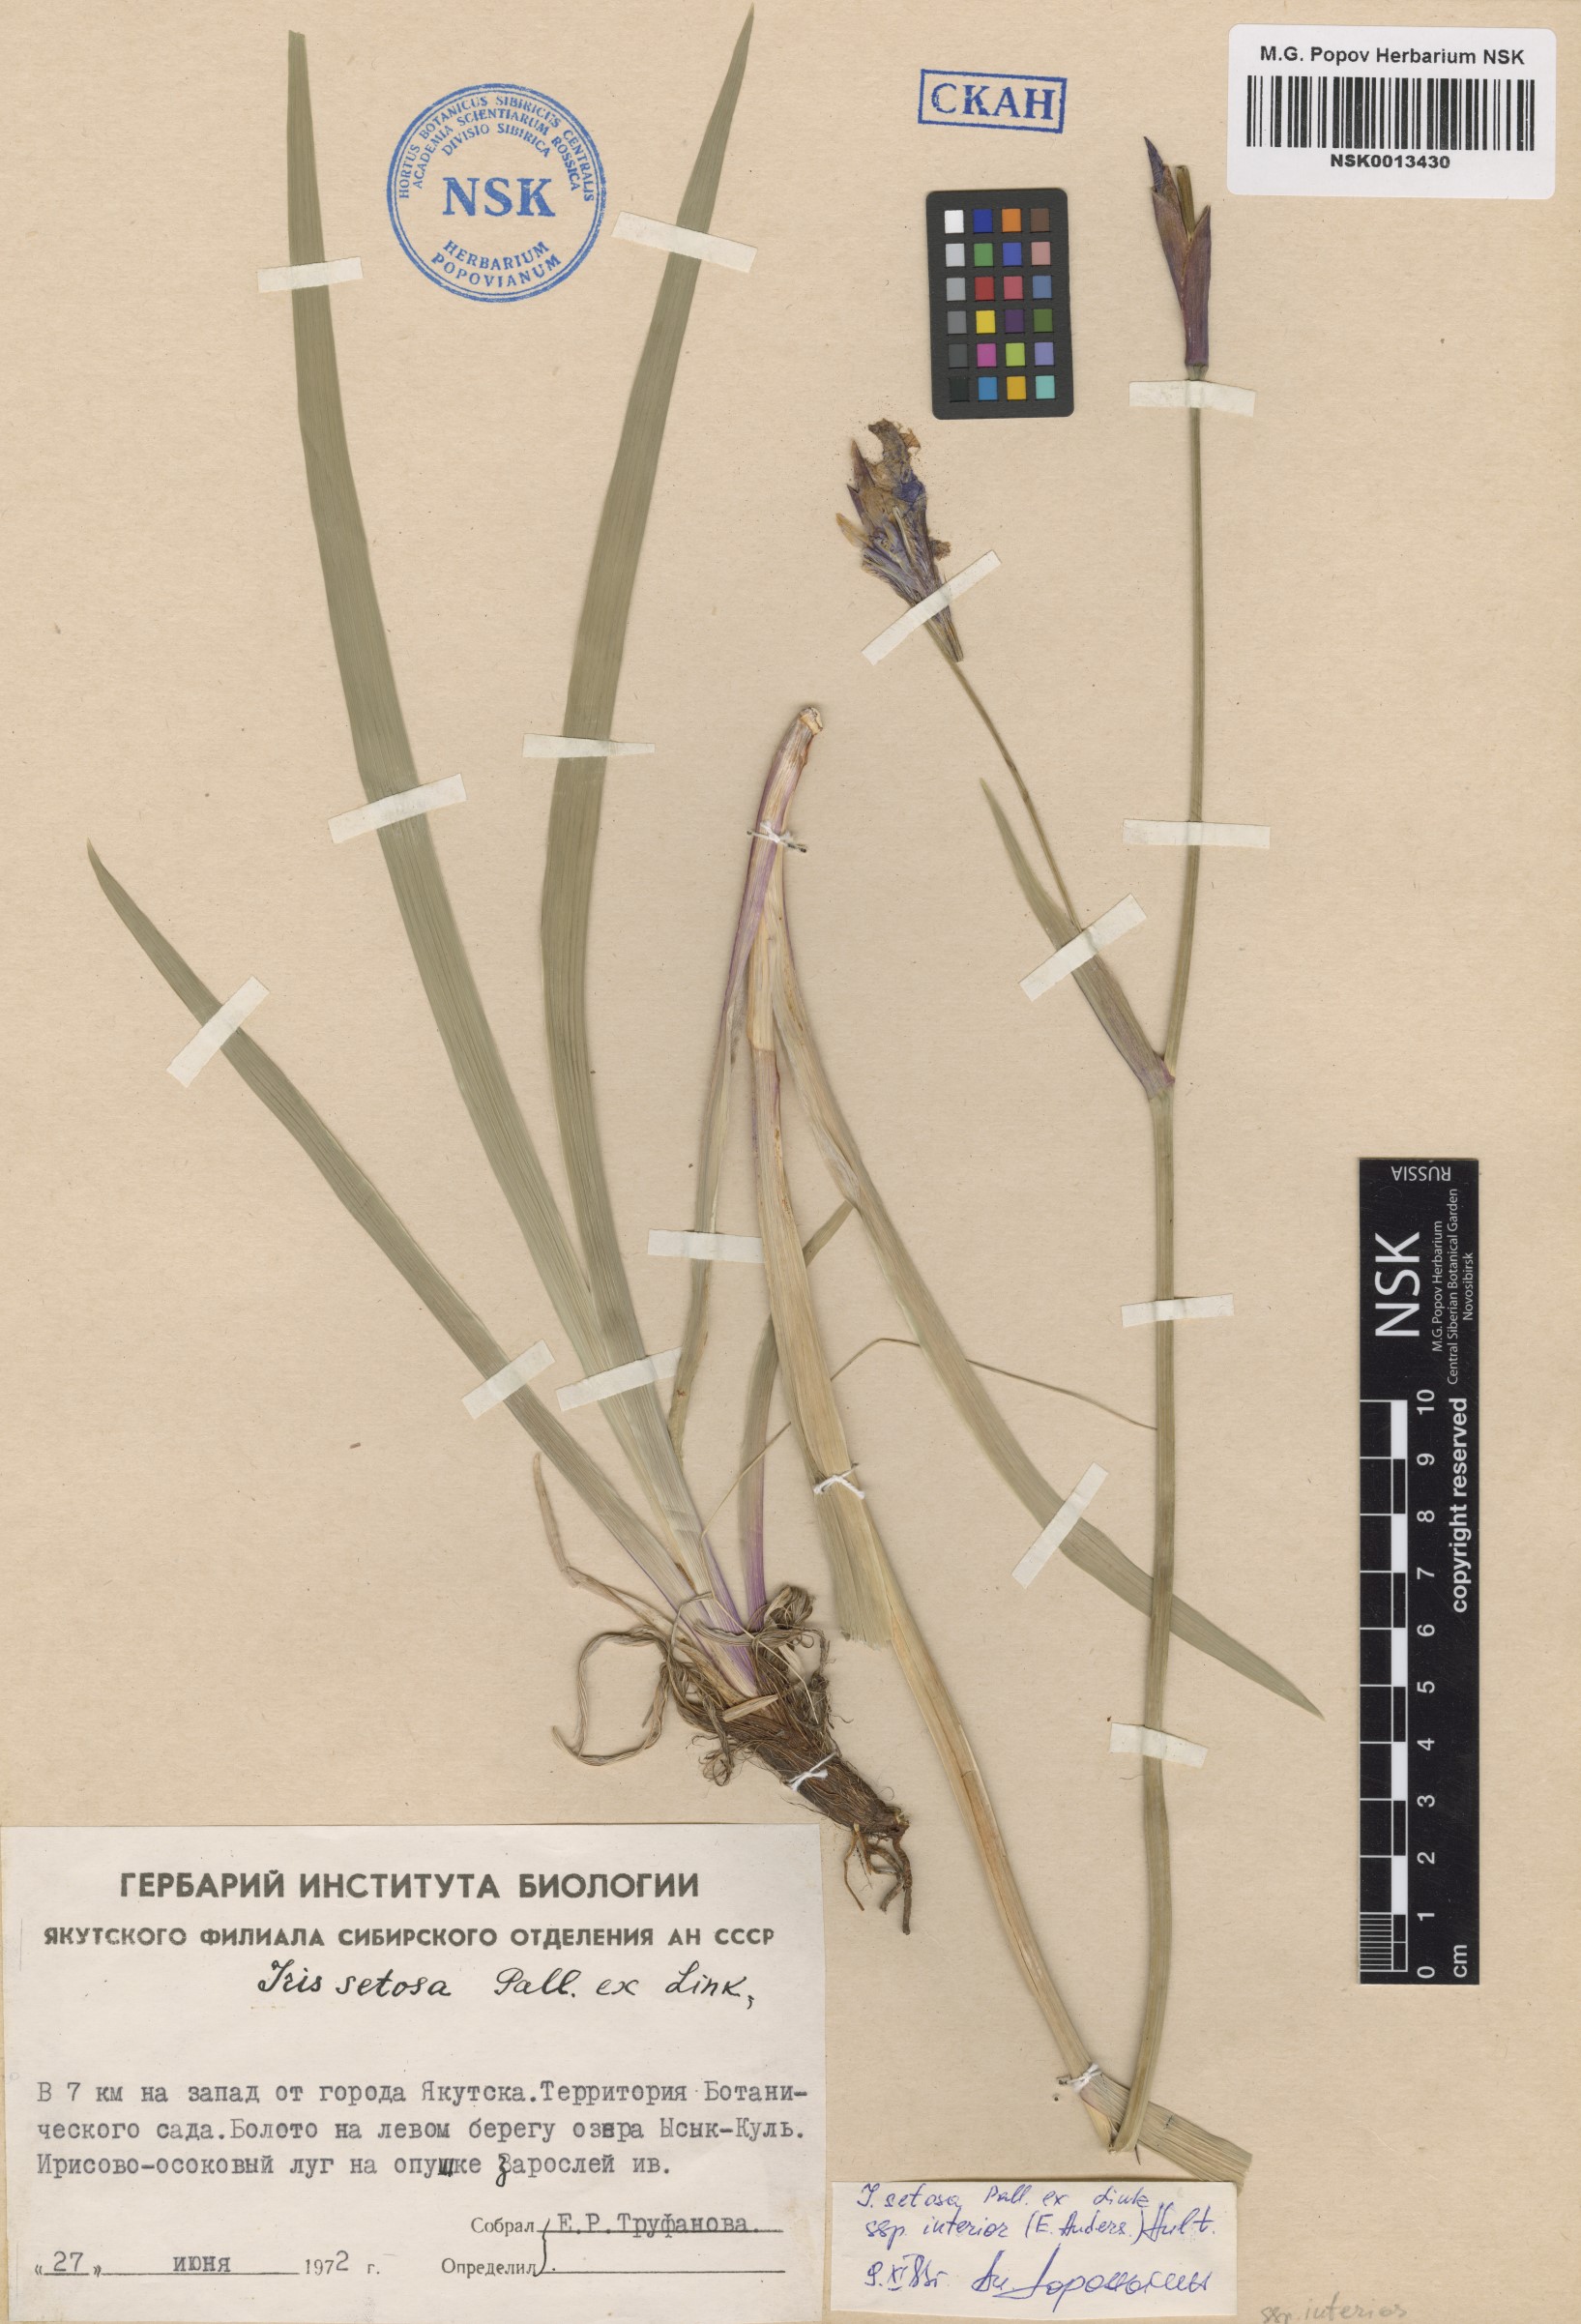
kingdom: Plantae
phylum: Tracheophyta
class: Liliopsida
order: Asparagales
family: Iridaceae
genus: Iris
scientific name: Iris setosa
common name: Arctic blue flag
